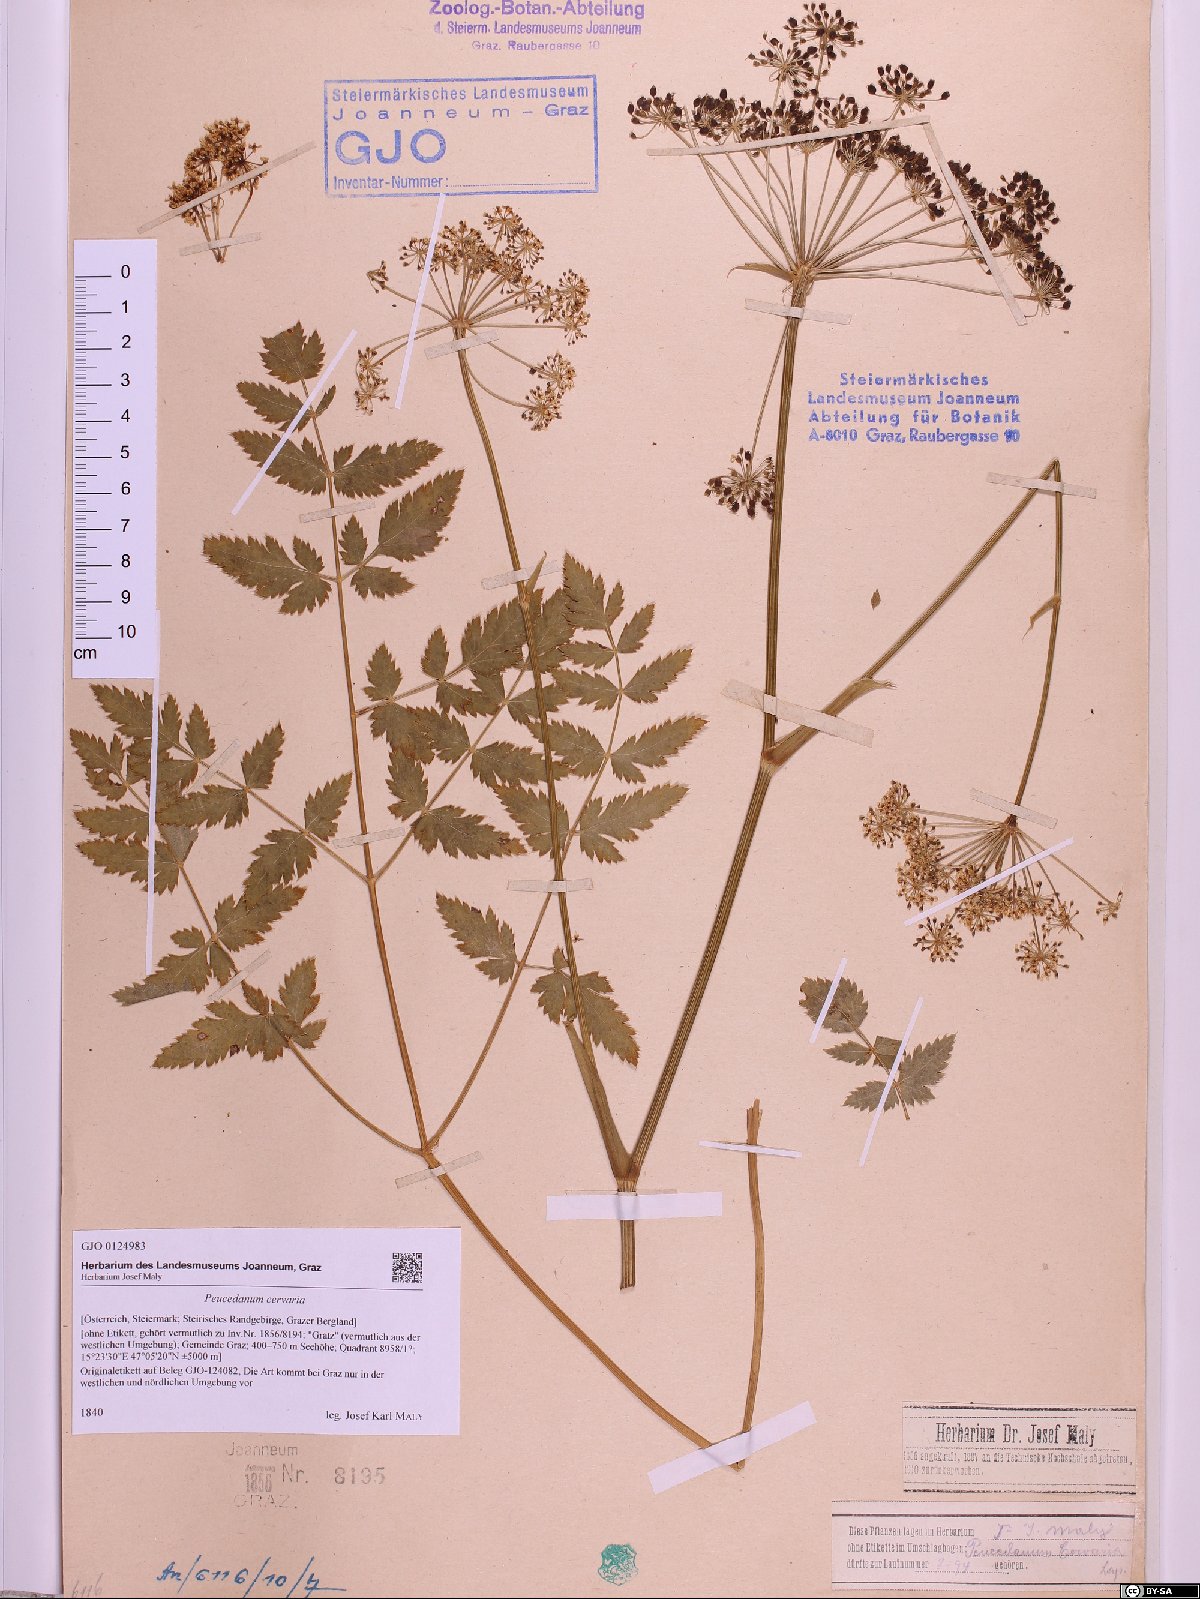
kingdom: Plantae
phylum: Tracheophyta
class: Magnoliopsida
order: Apiales
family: Apiaceae
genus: Cervaria
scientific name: Cervaria rivini
